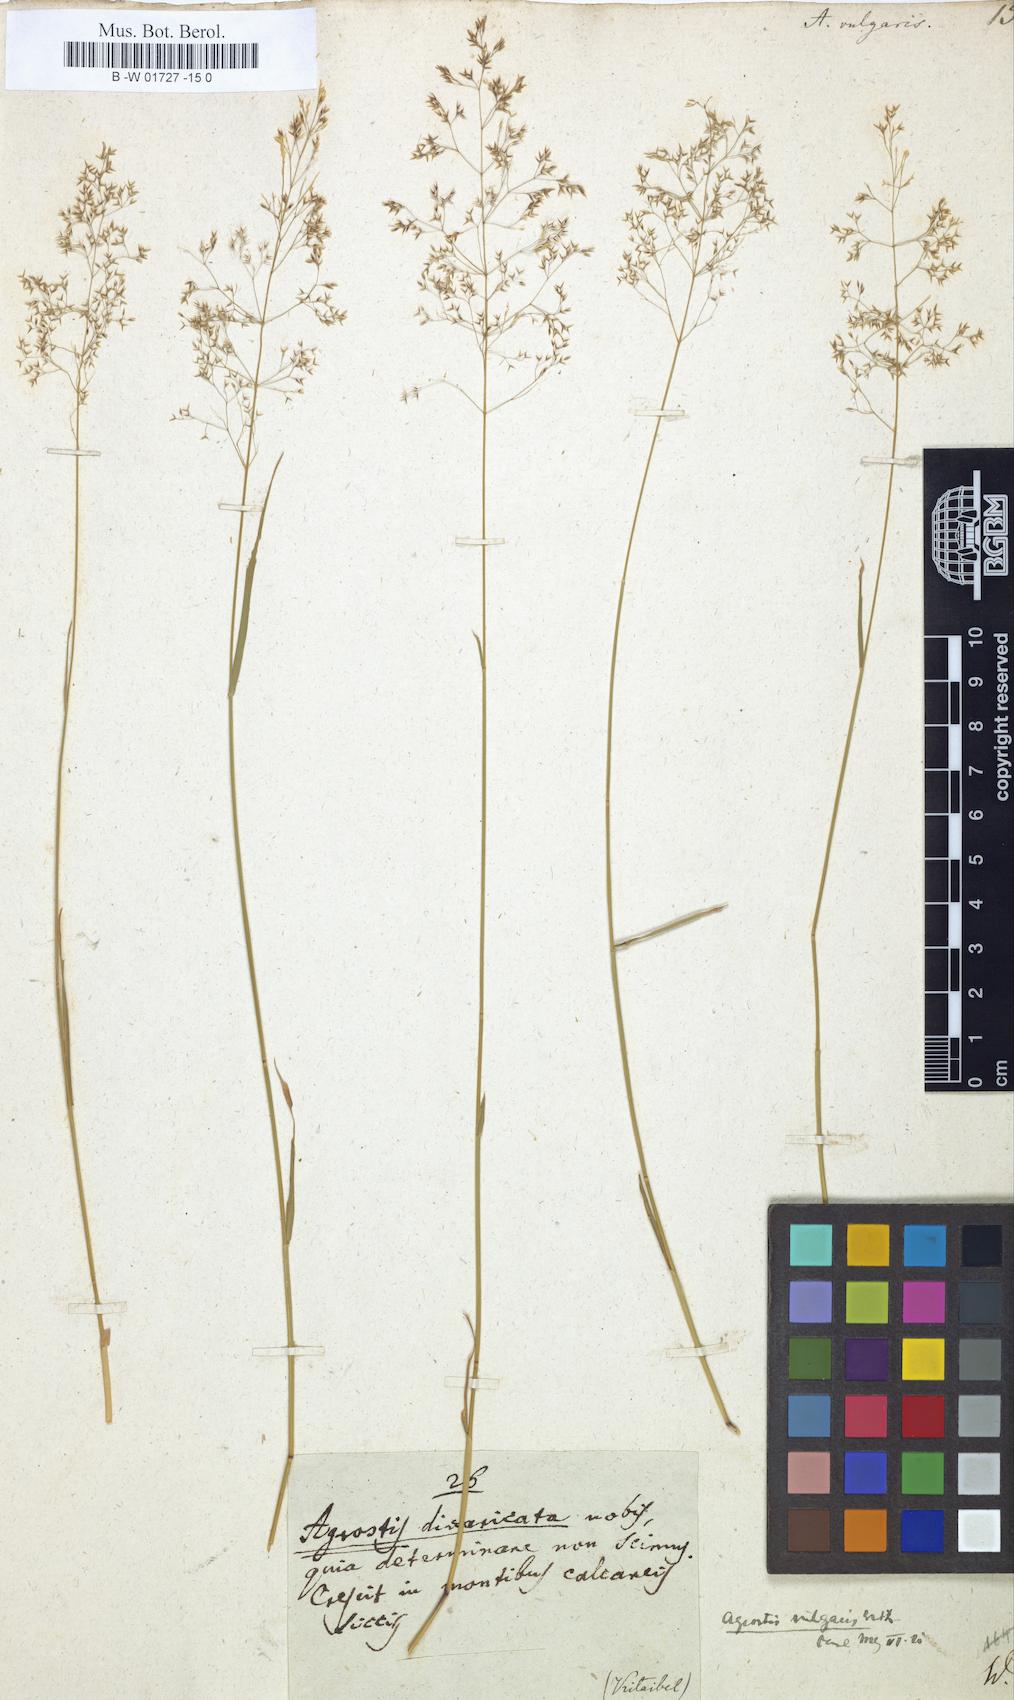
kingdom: Plantae
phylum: Tracheophyta
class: Liliopsida
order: Poales
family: Poaceae
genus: Agrostis
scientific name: Agrostis capillaris
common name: Colonial bentgrass
